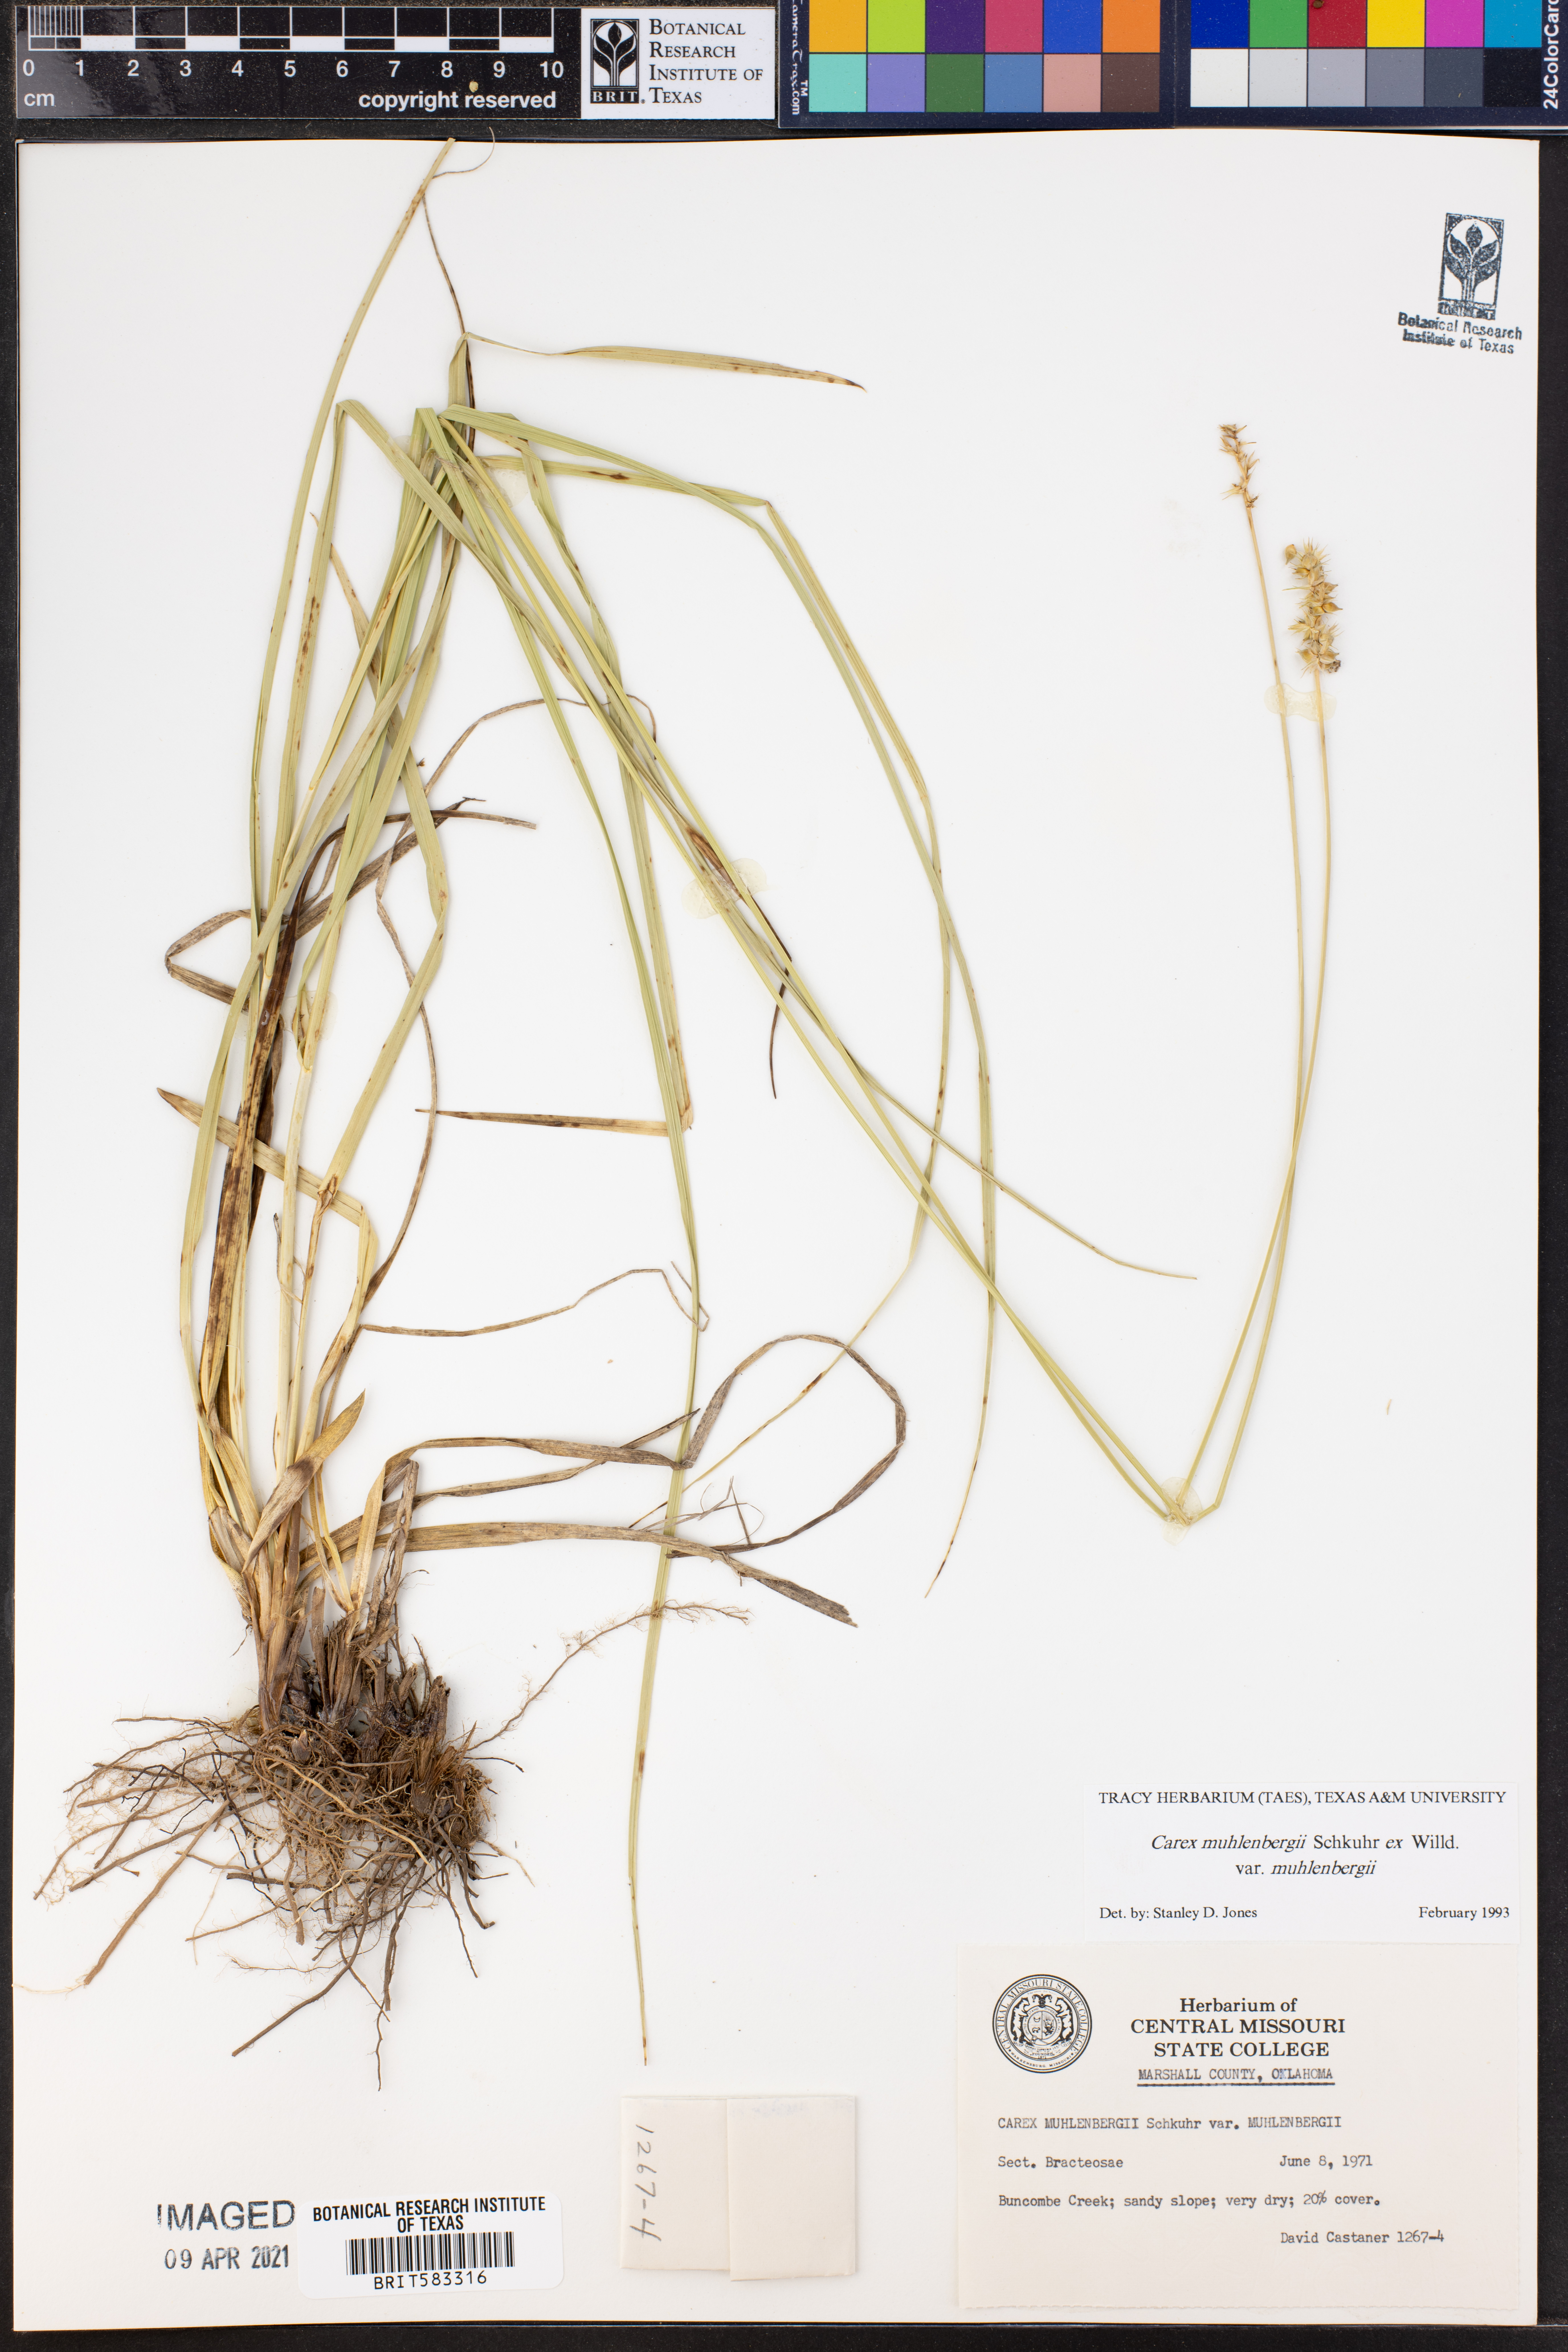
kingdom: Plantae
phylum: Tracheophyta
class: Liliopsida
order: Poales
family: Cyperaceae
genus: Carex
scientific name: Carex vulpinoidea
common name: American fox-sedge
